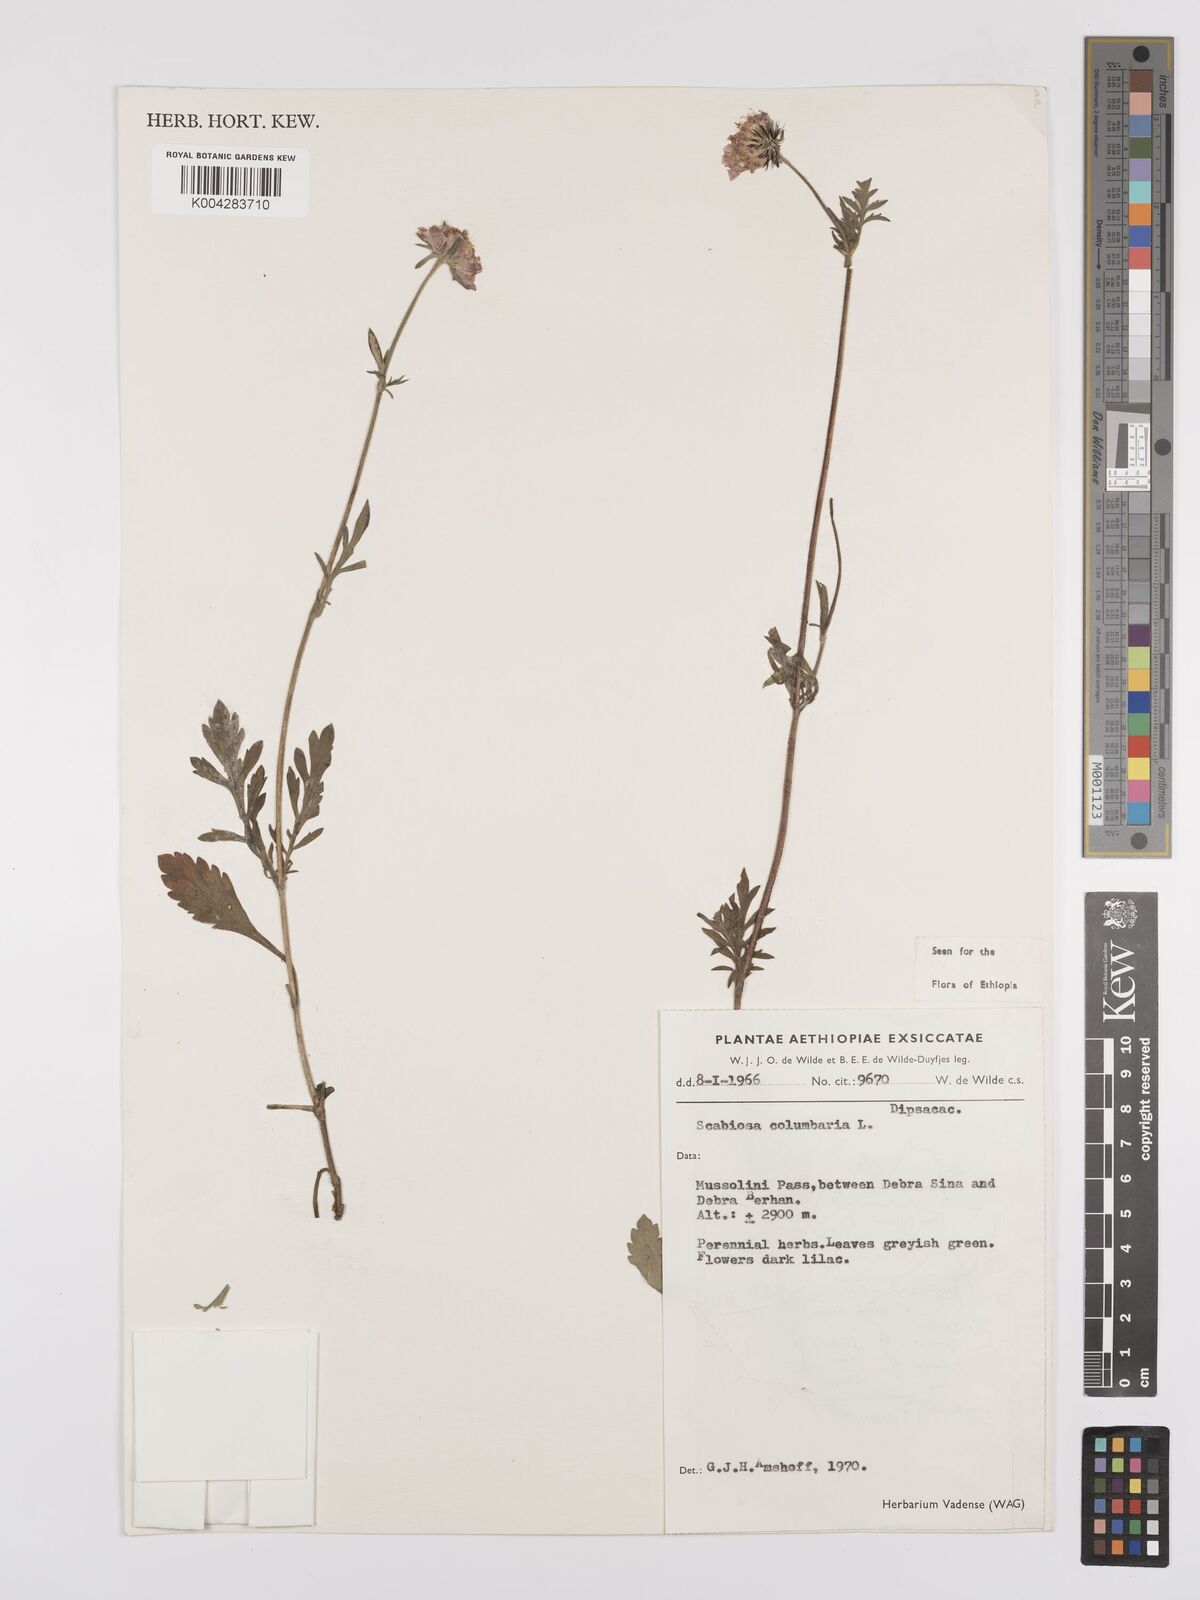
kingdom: Plantae
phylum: Tracheophyta
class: Magnoliopsida
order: Dipsacales
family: Caprifoliaceae
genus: Scabiosa
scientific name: Scabiosa columbaria
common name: Small scabious
